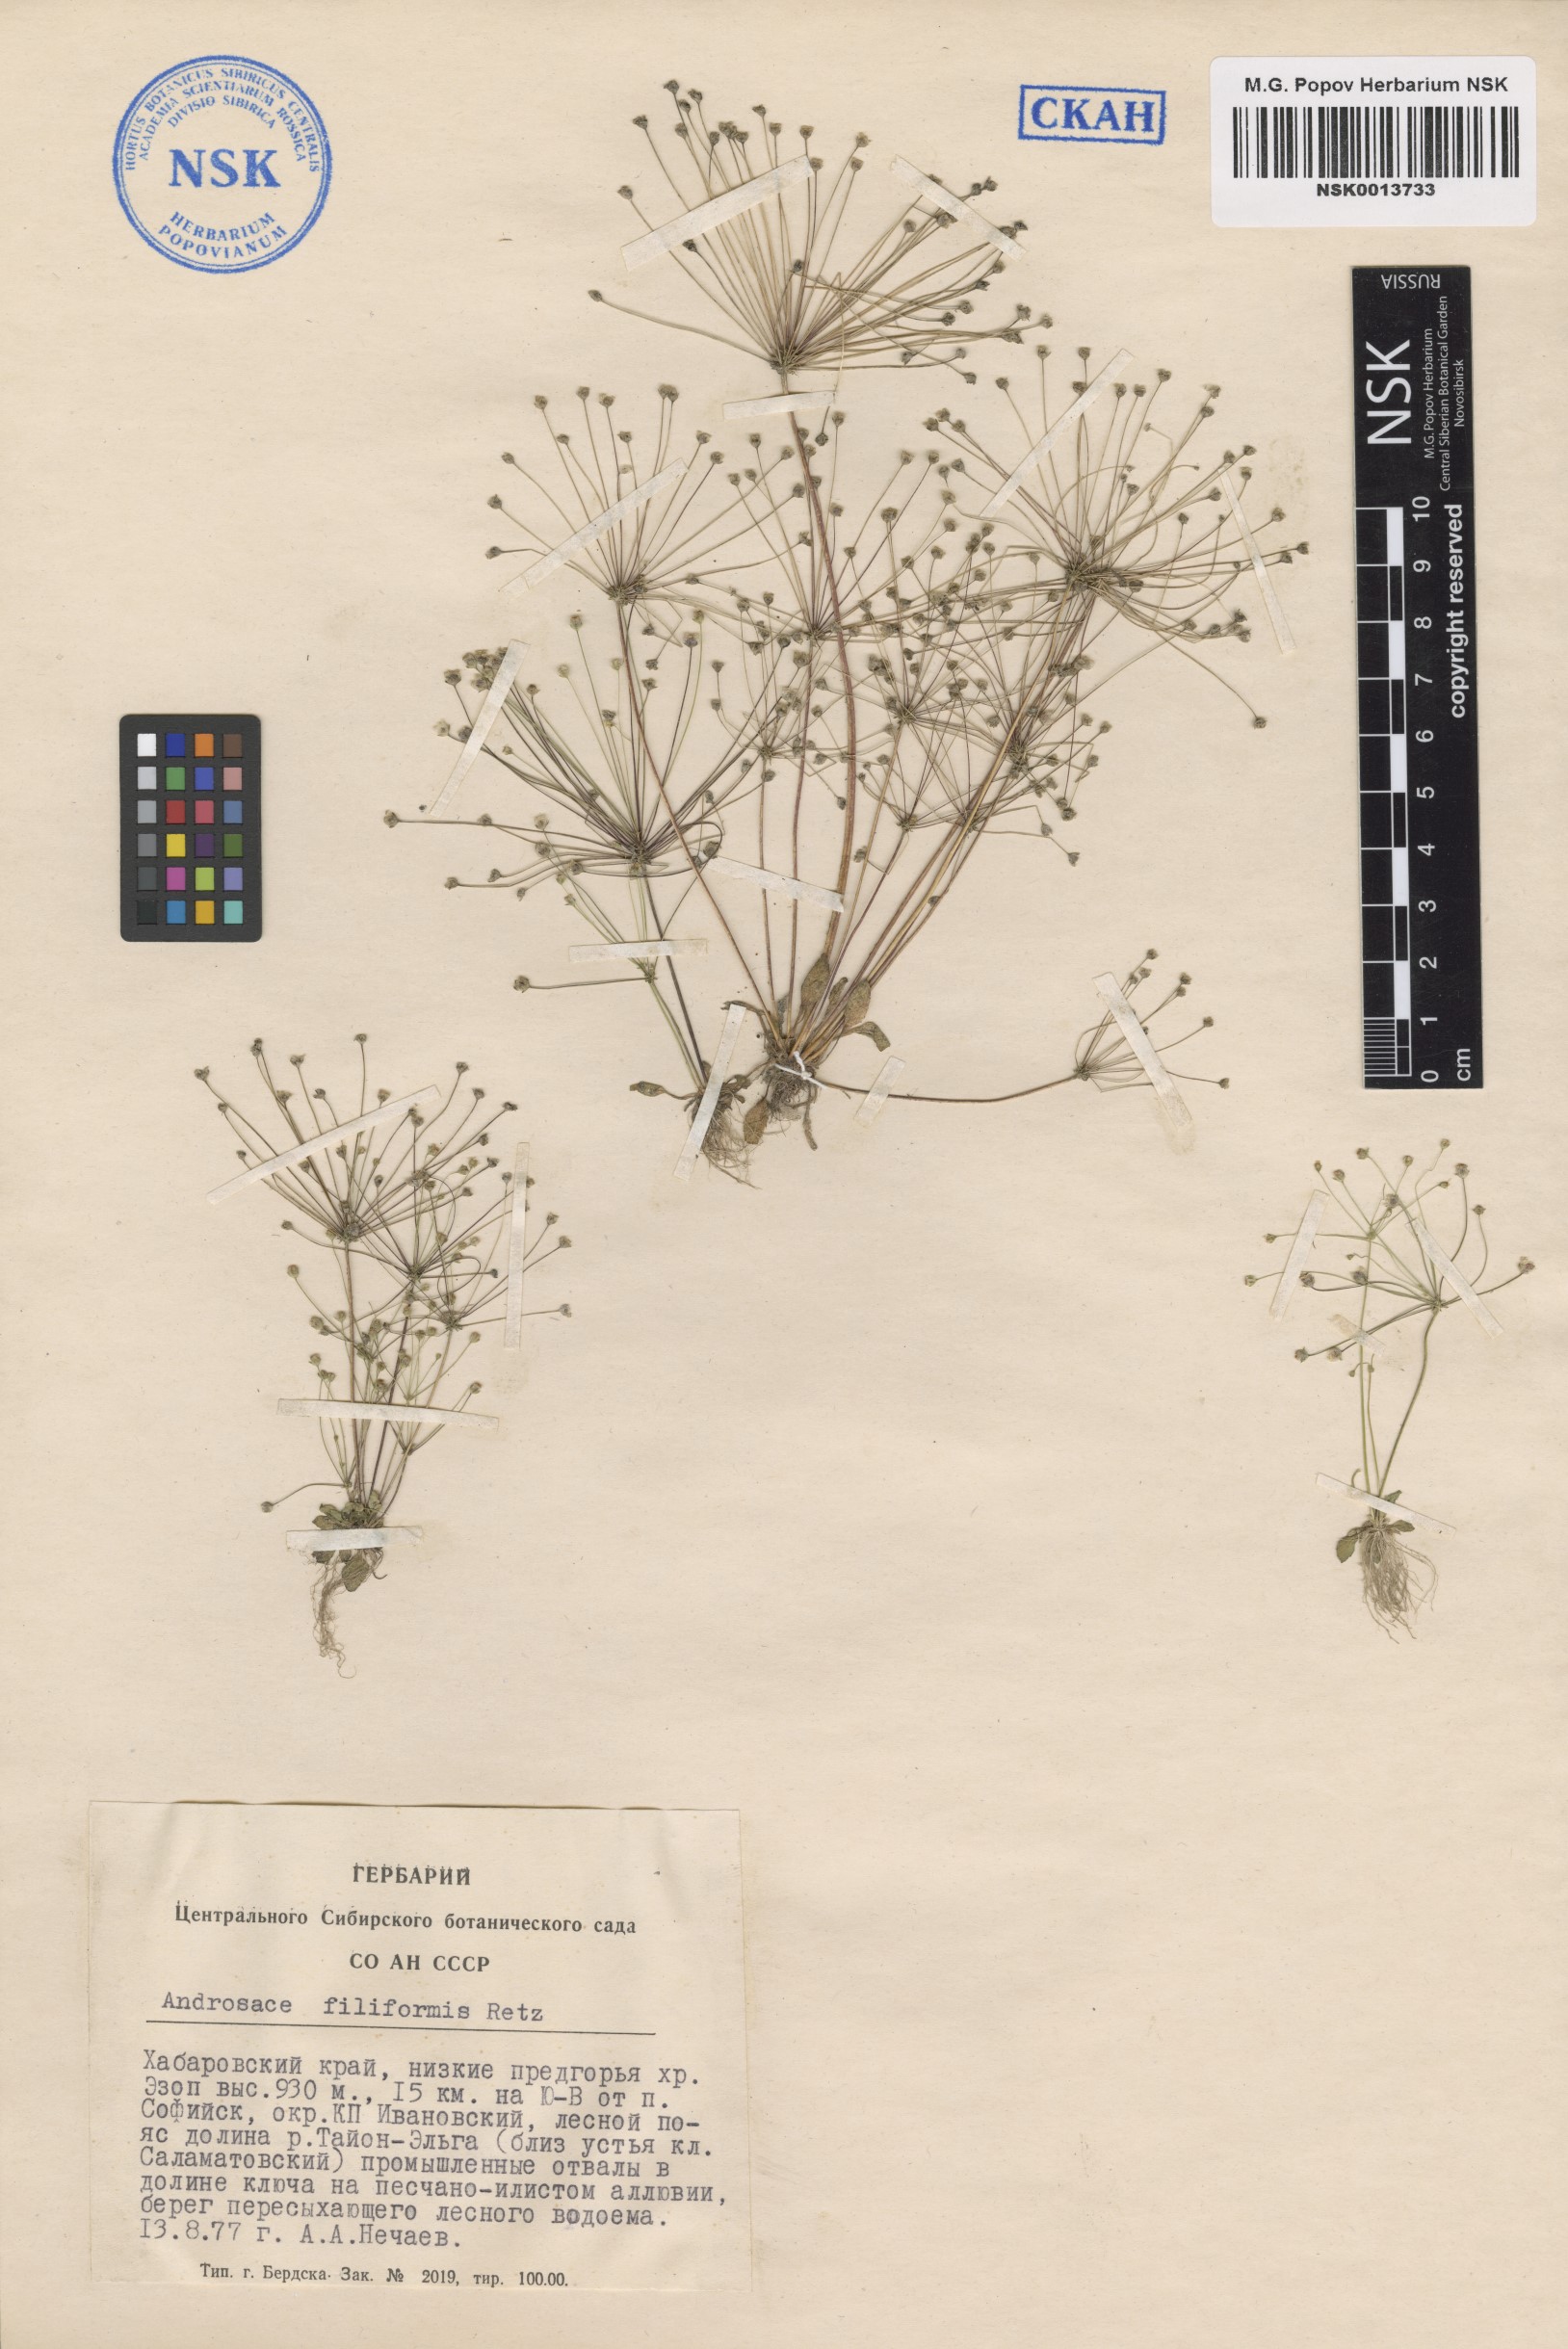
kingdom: Plantae
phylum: Tracheophyta
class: Magnoliopsida
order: Ericales
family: Primulaceae
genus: Androsace
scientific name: Androsace filiformis
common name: Filiform rock jasmine
